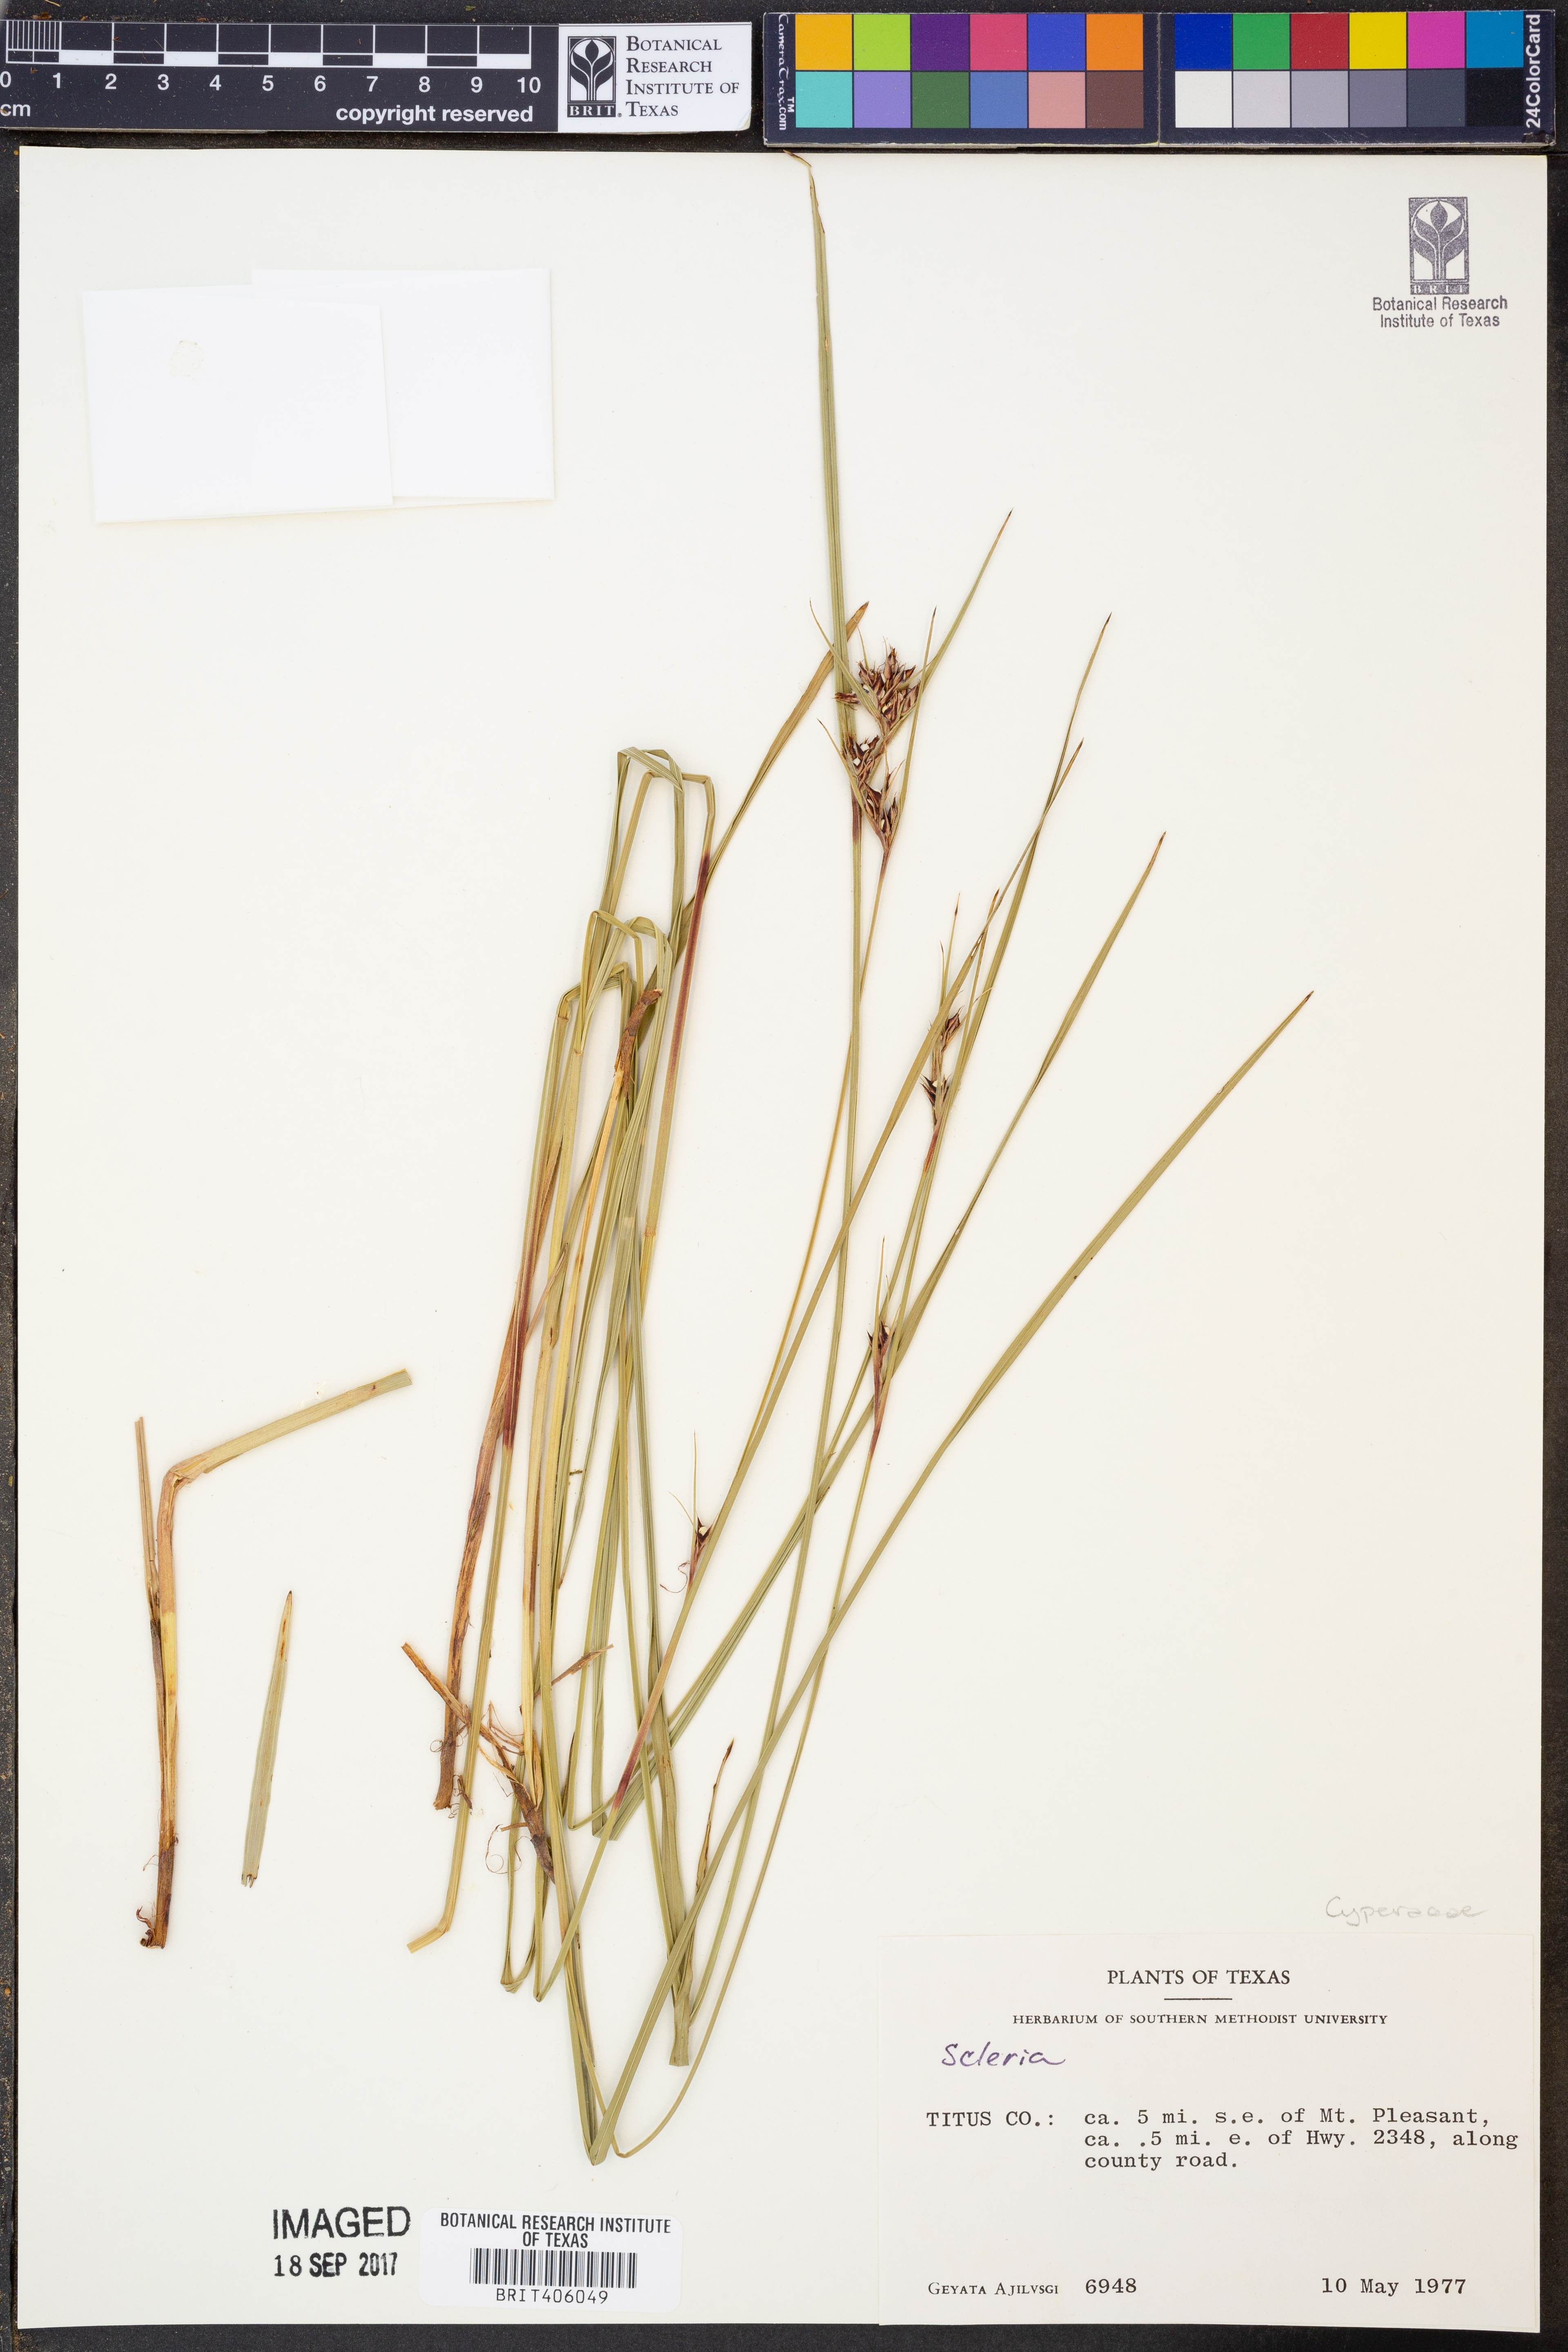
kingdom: Plantae
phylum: Tracheophyta
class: Liliopsida
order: Poales
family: Cyperaceae
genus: Scleria
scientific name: Scleria
